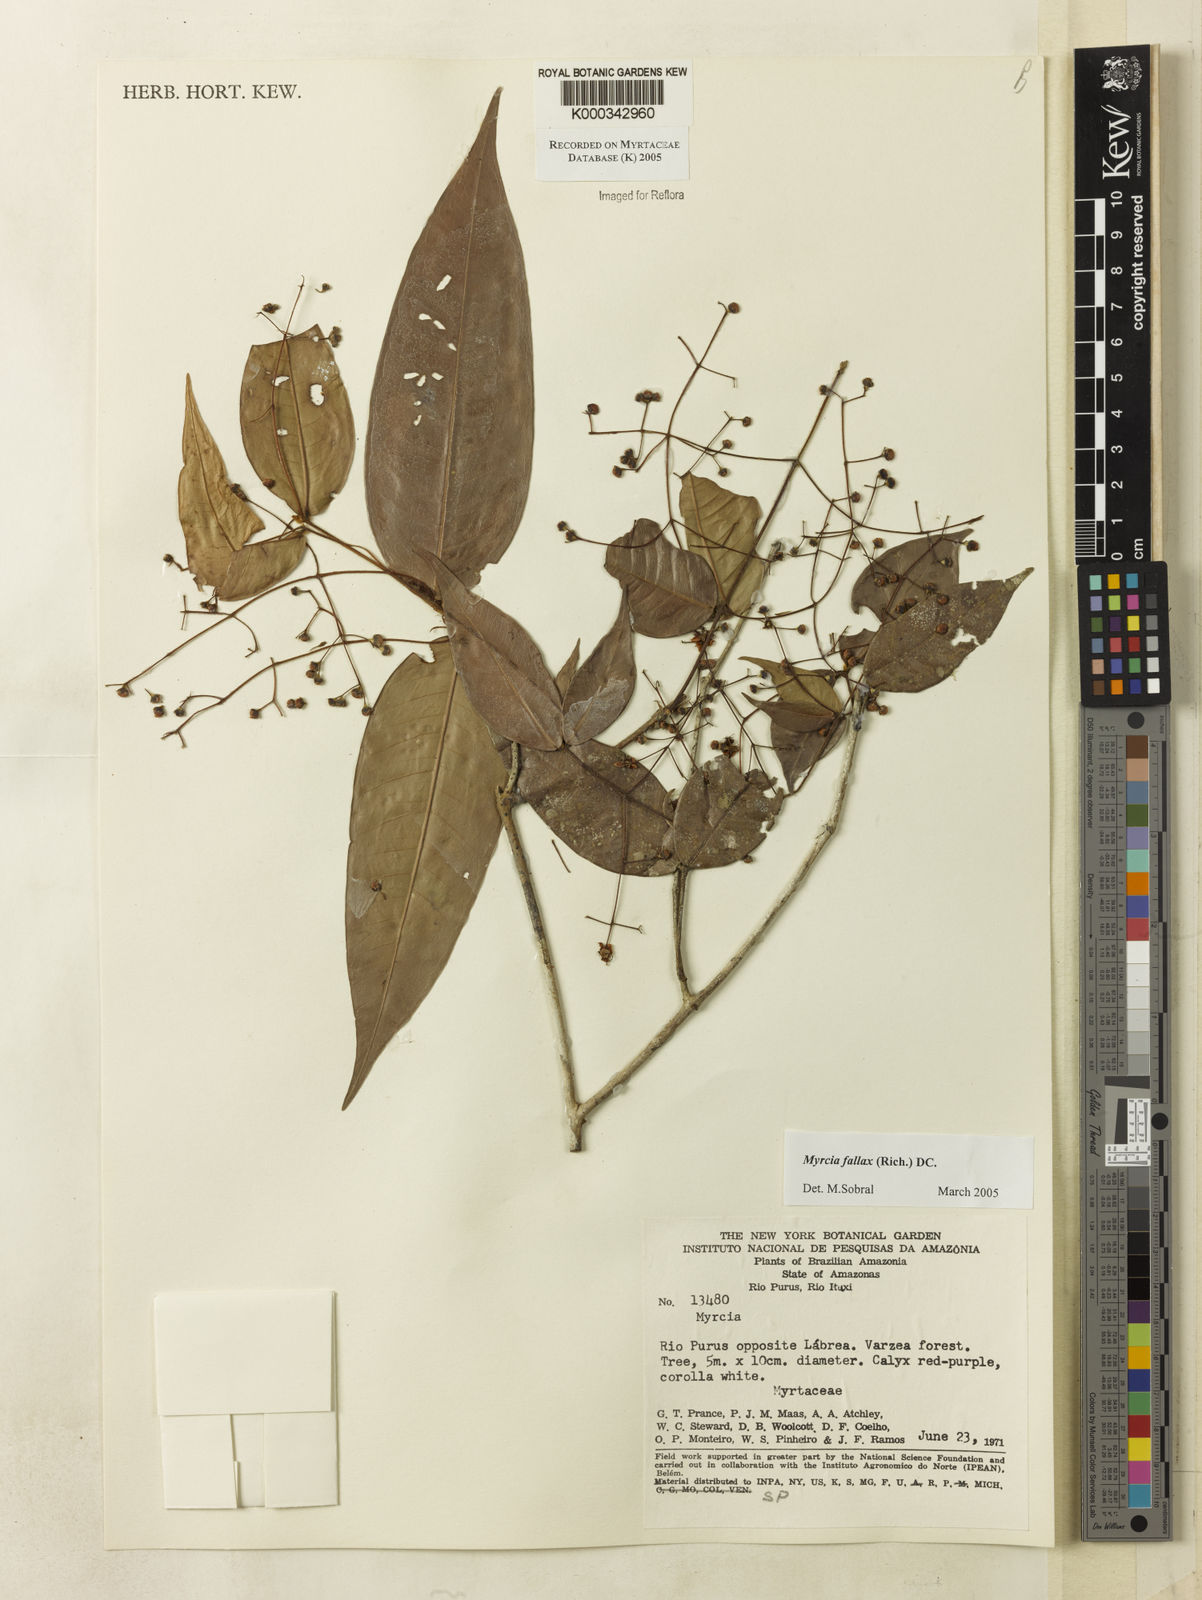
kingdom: Plantae
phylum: Tracheophyta
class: Magnoliopsida
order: Myrtales
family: Myrtaceae
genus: Myrcia
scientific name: Myrcia splendens
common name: Surinam cherry
